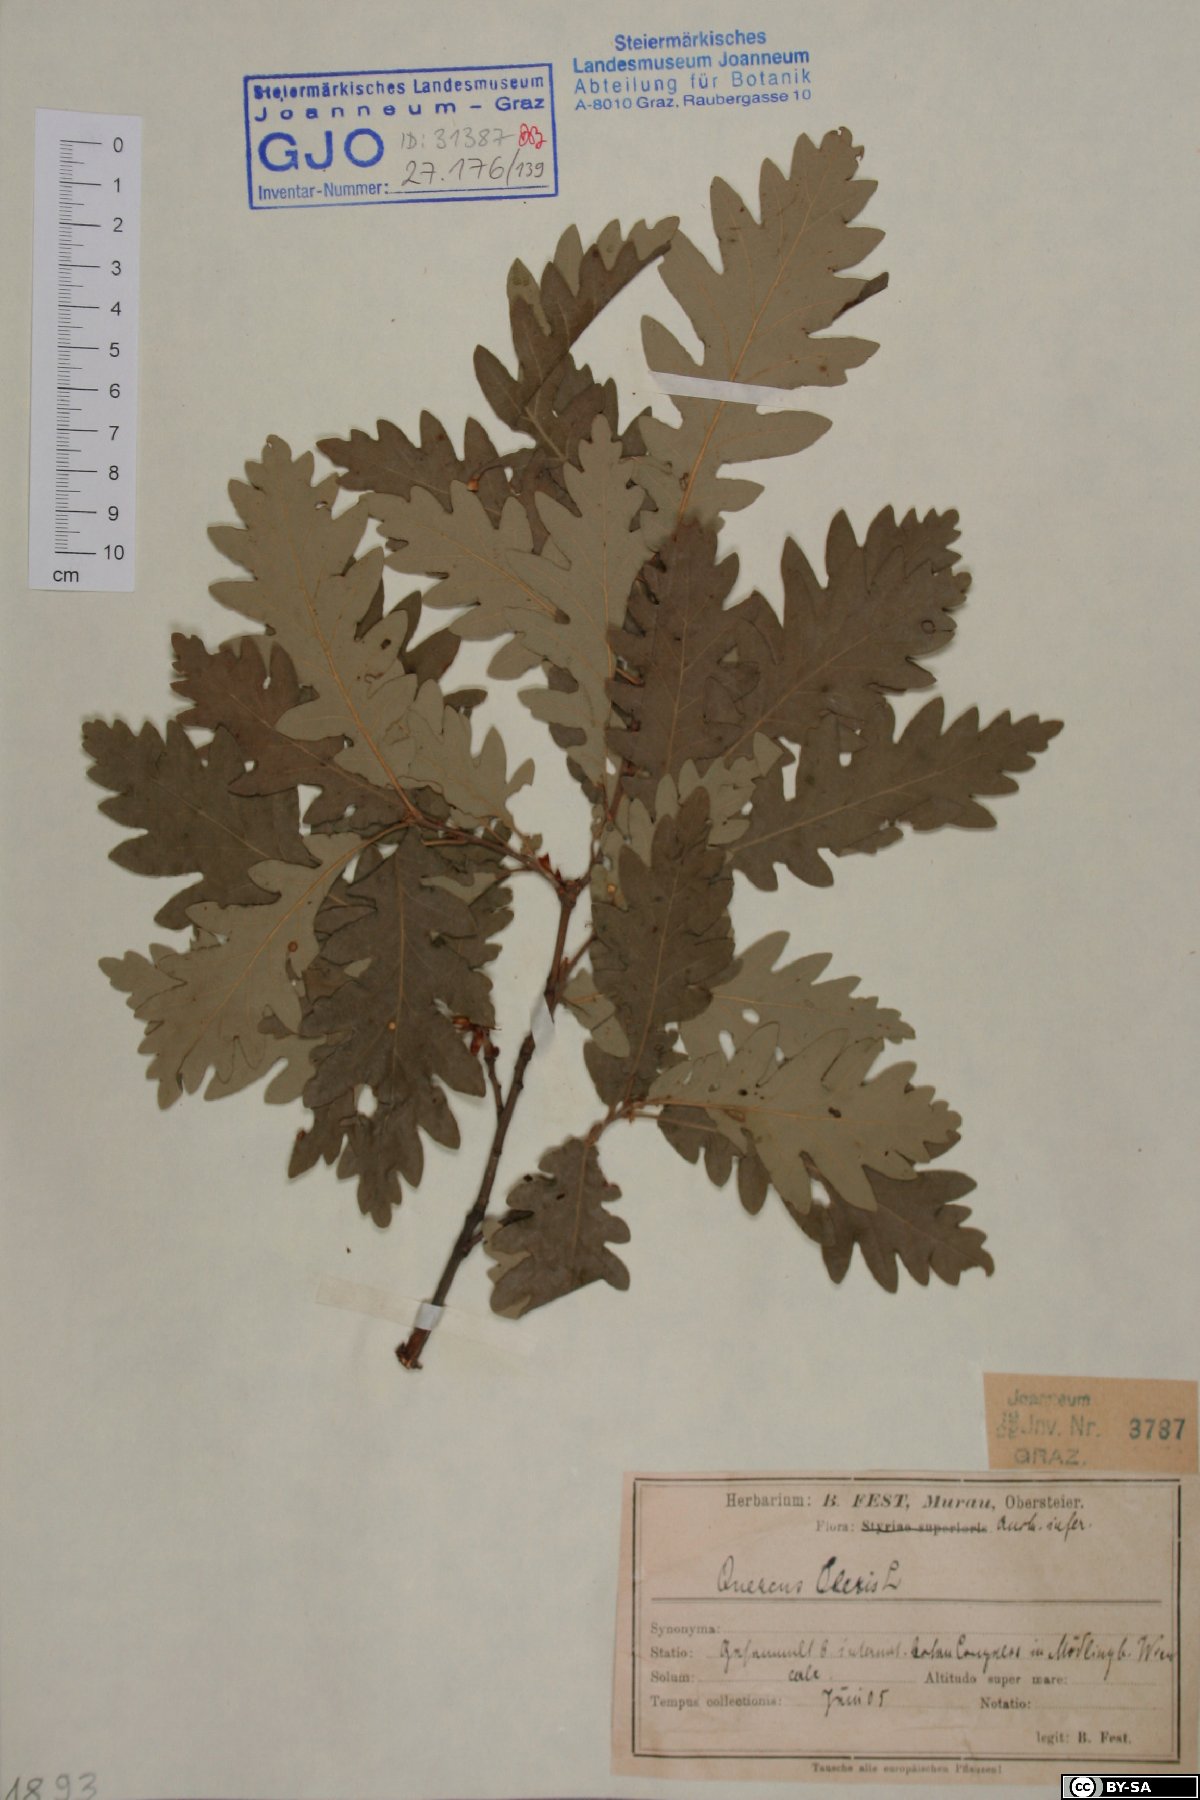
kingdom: Plantae
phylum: Tracheophyta
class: Magnoliopsida
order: Fagales
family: Fagaceae
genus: Quercus
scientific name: Quercus cerris
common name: Turkey oak
